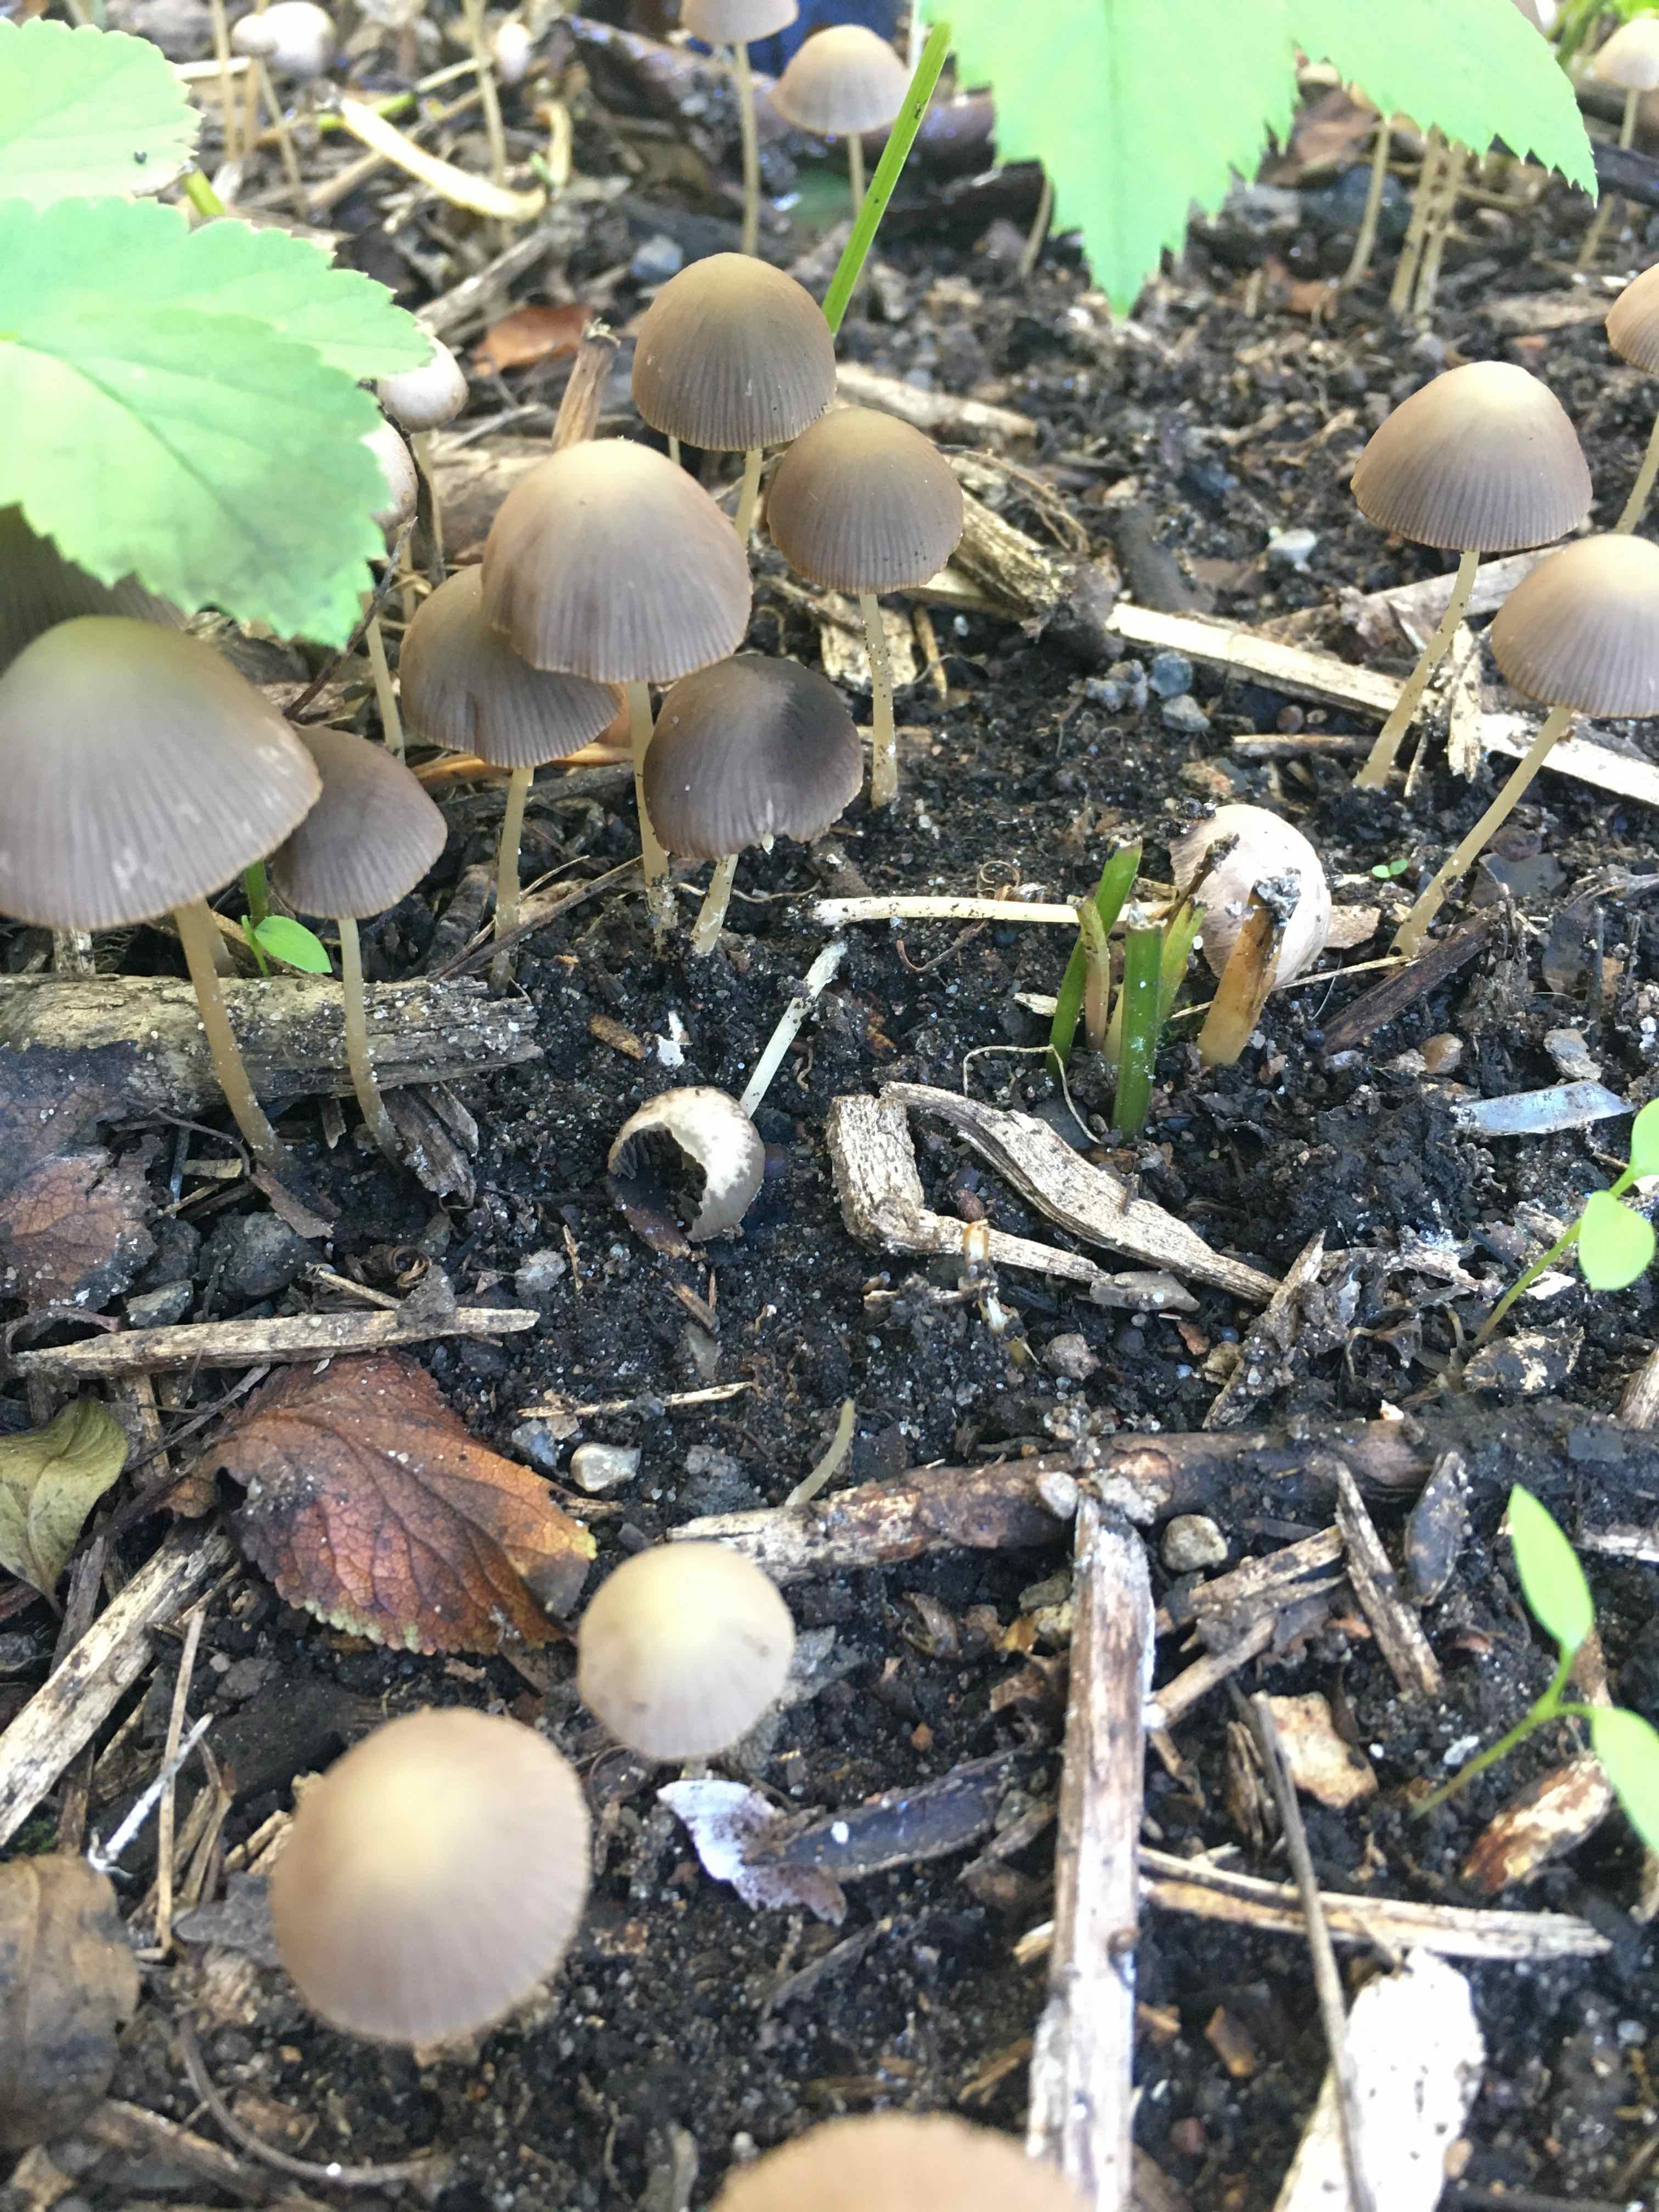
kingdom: Fungi
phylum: Basidiomycota
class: Agaricomycetes
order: Agaricales
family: Psathyrellaceae
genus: Psathyrella
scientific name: Psathyrella
